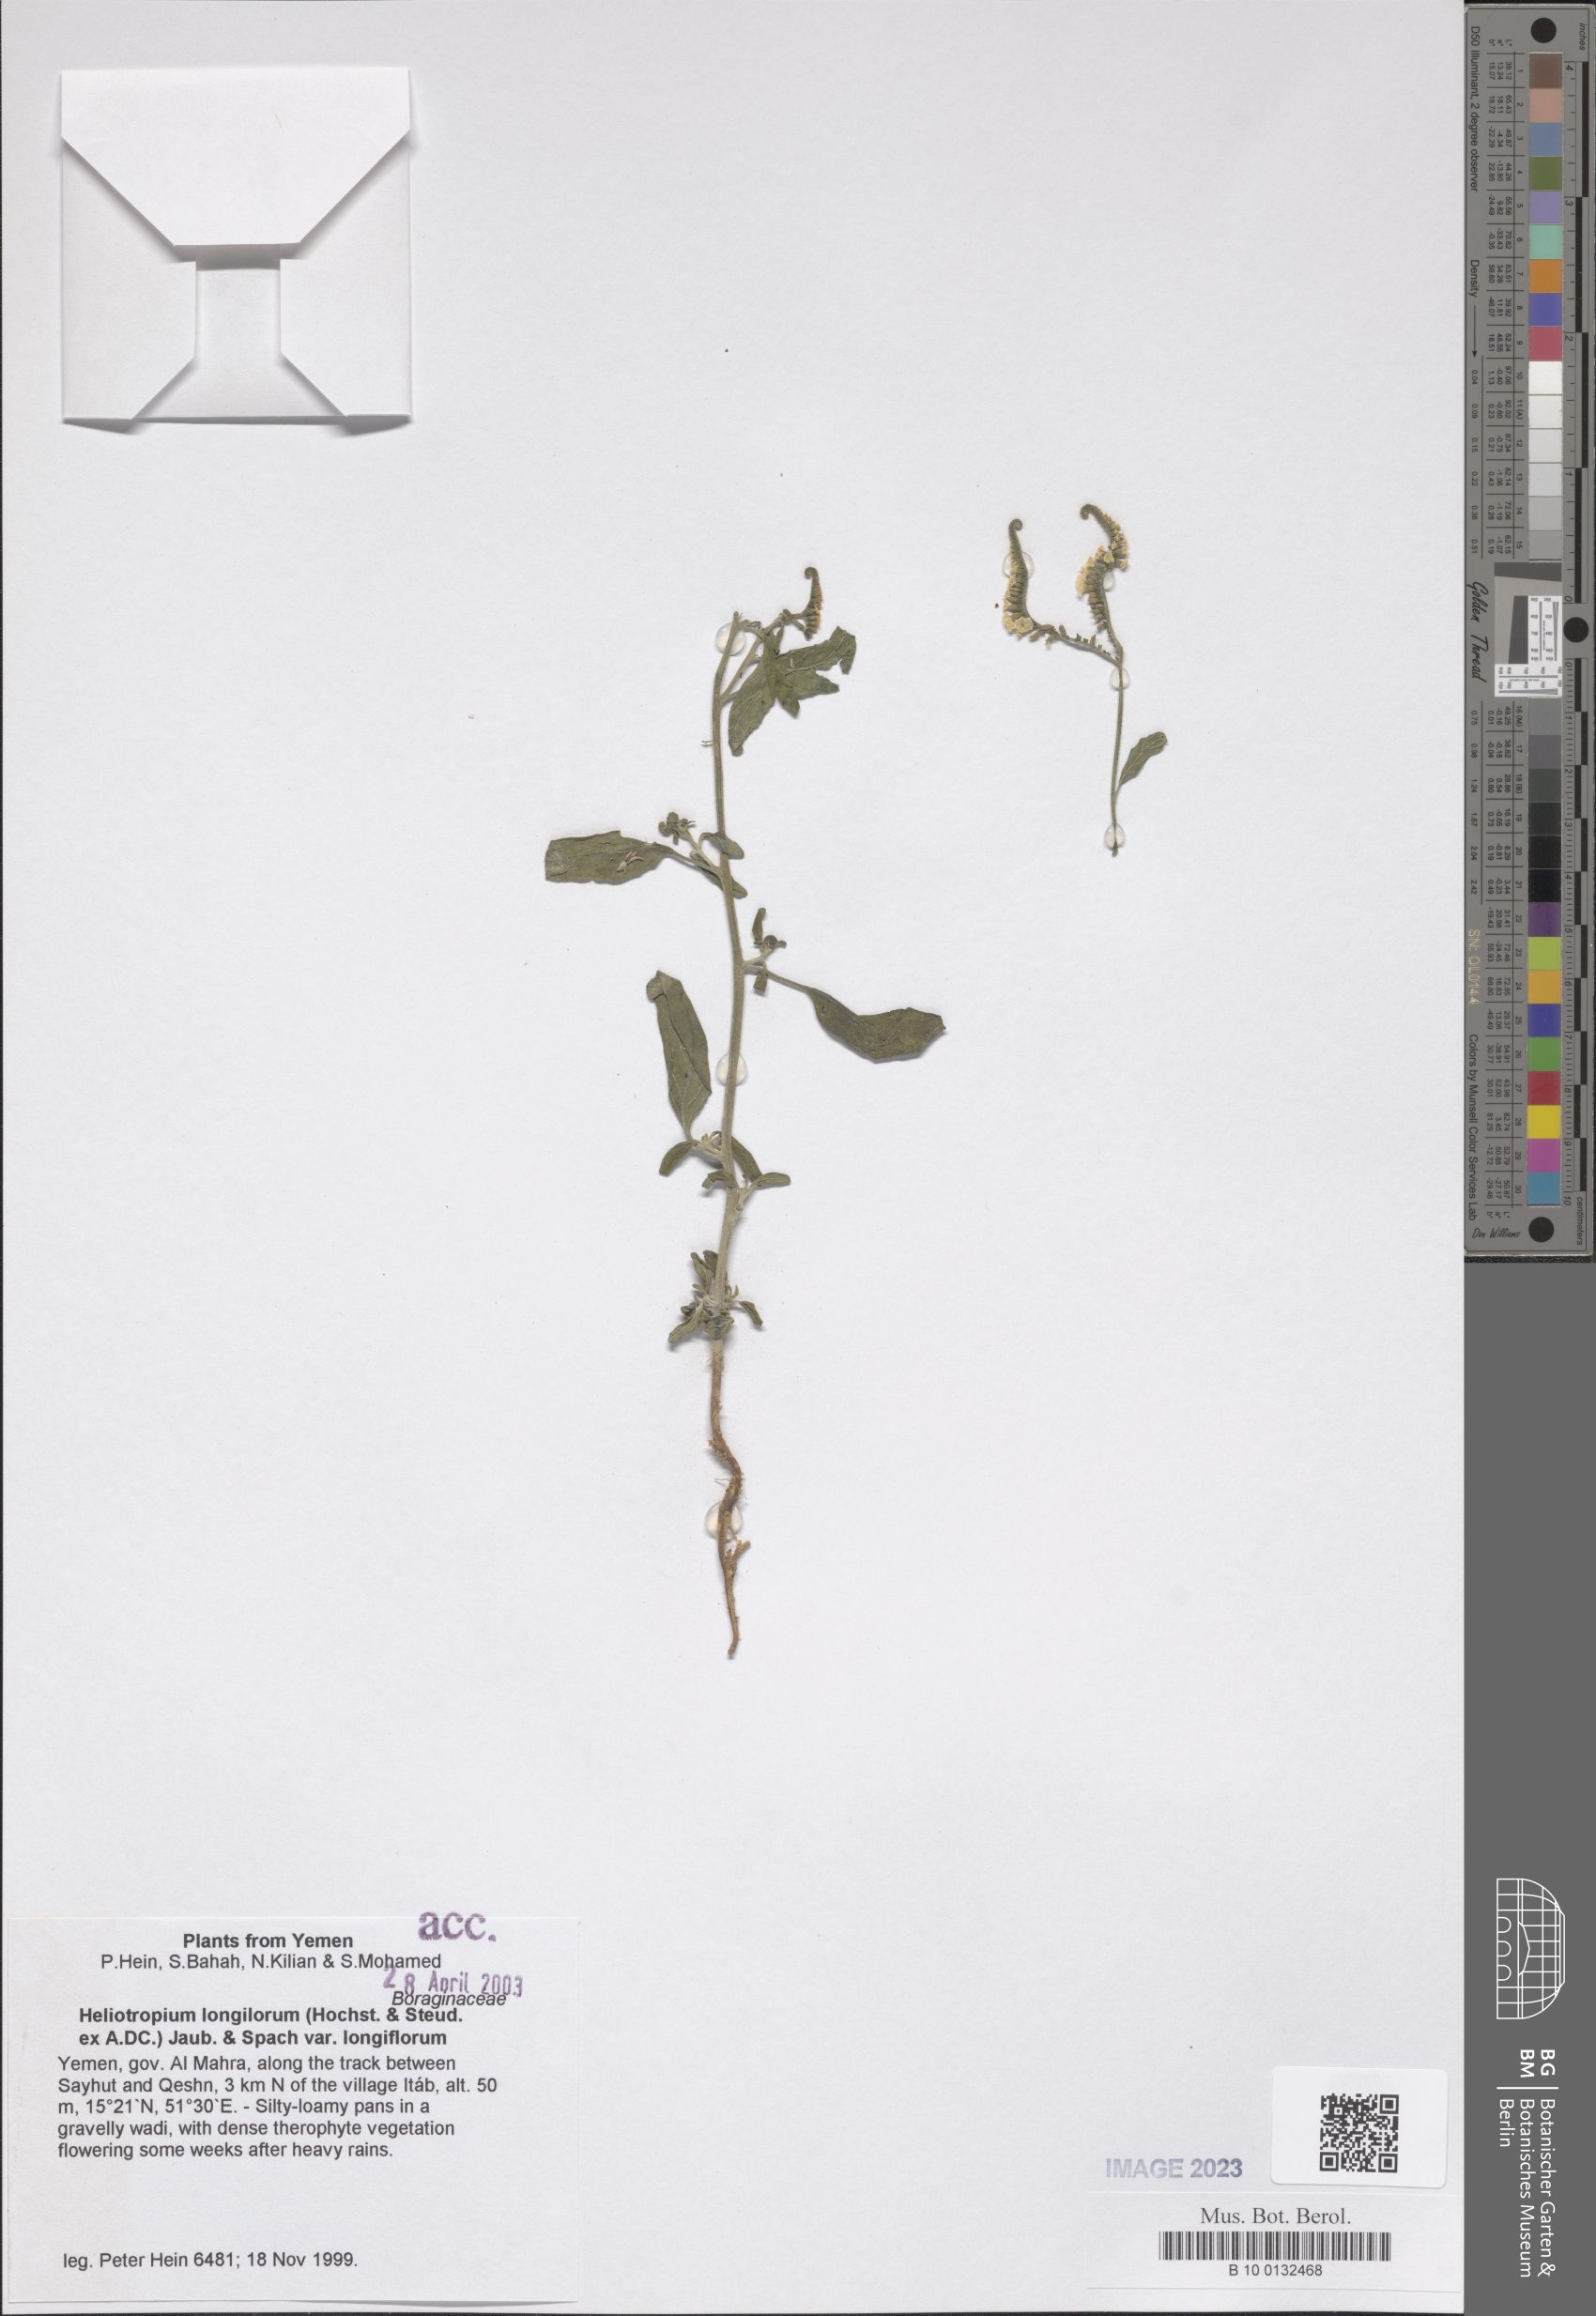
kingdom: Plantae
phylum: Tracheophyta
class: Magnoliopsida
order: Boraginales
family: Heliotropiaceae
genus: Heliotropium
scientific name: Heliotropium longiflorum
